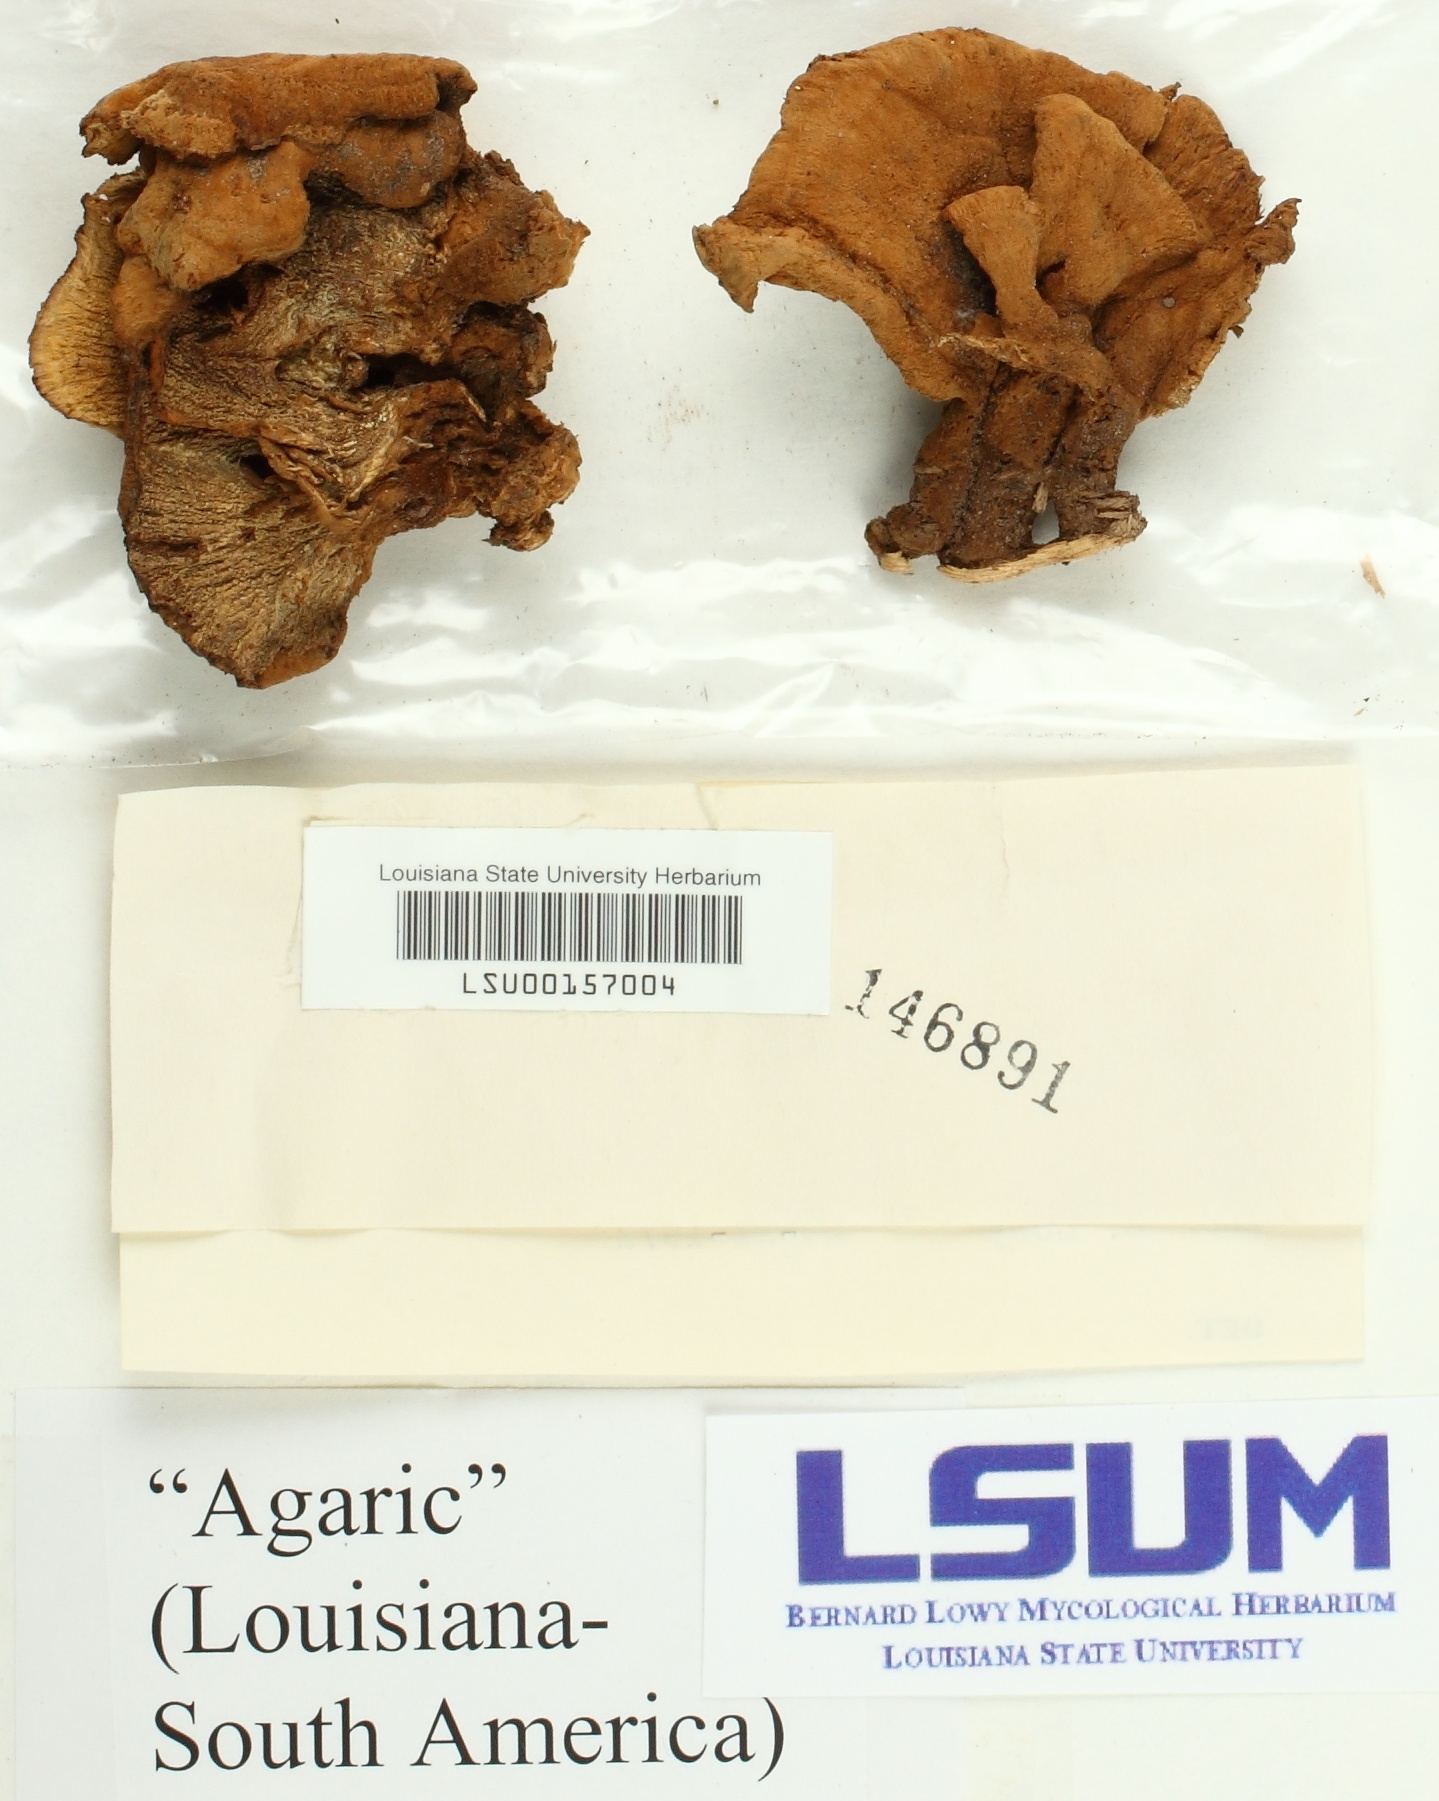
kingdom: Fungi
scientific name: Fungi
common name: Fungi
